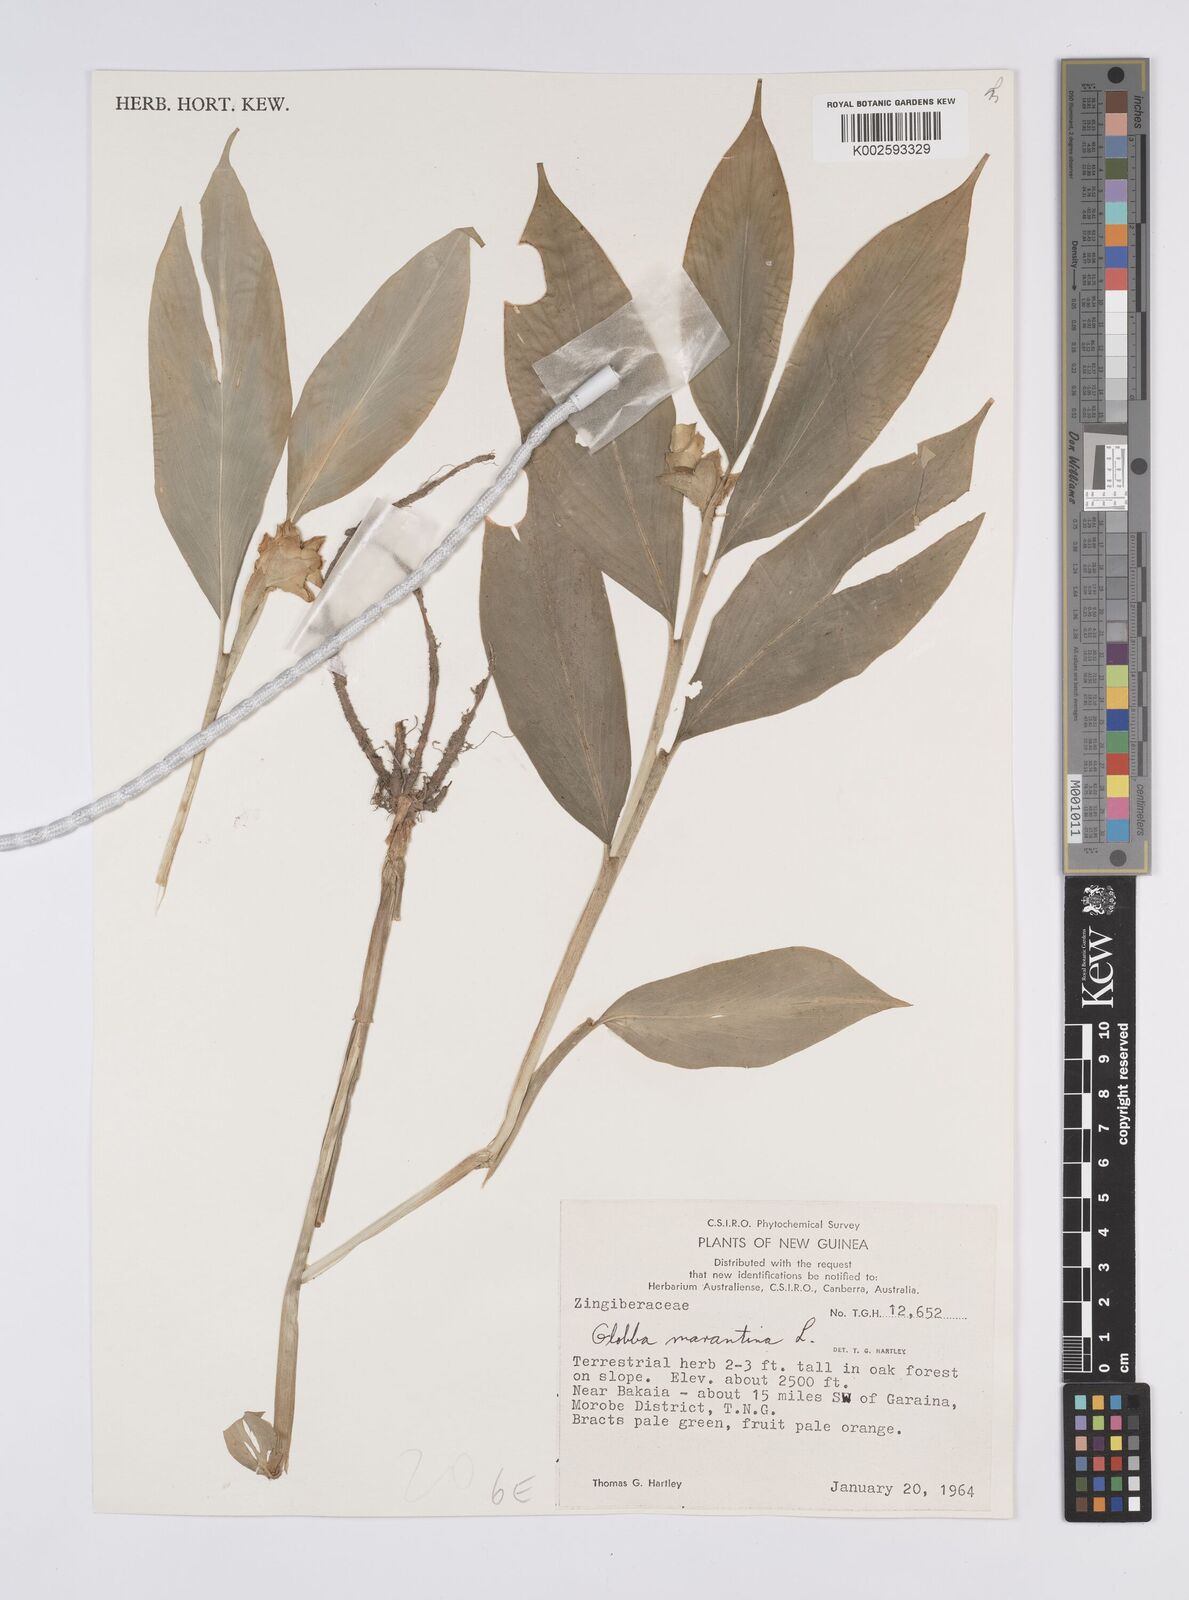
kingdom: Plantae
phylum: Tracheophyta
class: Liliopsida
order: Zingiberales
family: Zingiberaceae
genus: Globba
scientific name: Globba marantina
